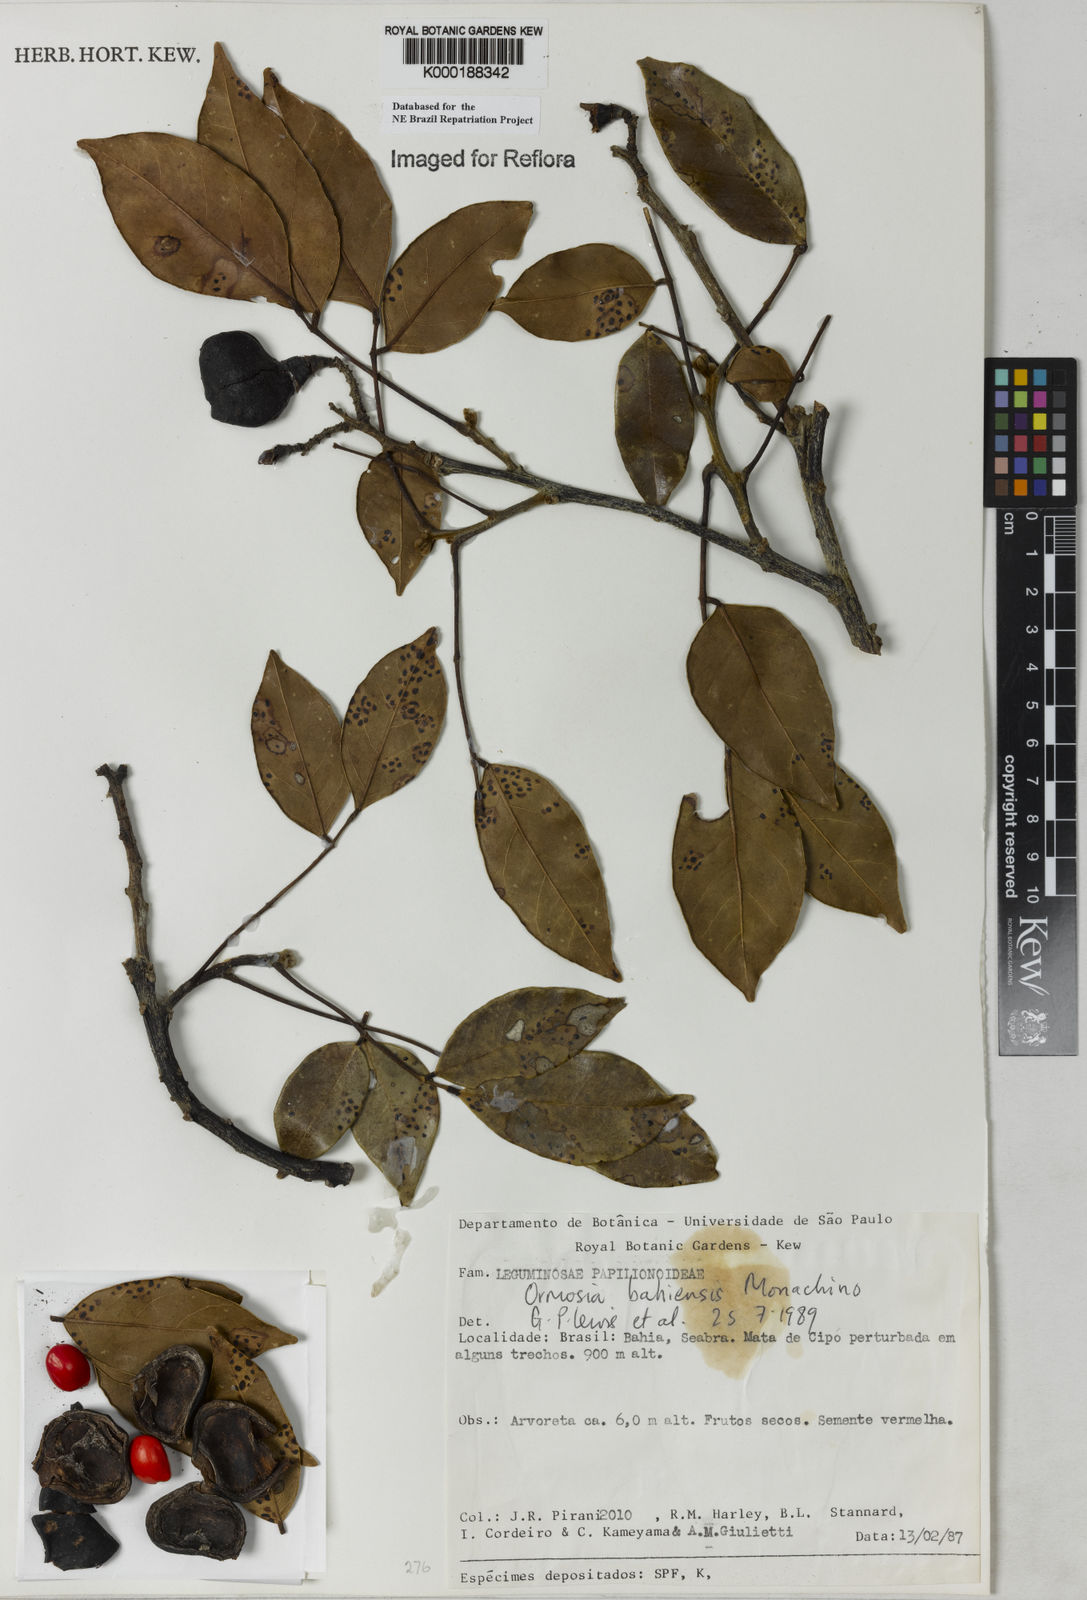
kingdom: Plantae
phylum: Tracheophyta
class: Magnoliopsida
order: Fabales
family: Fabaceae
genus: Ormosia
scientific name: Ormosia bahiensis
